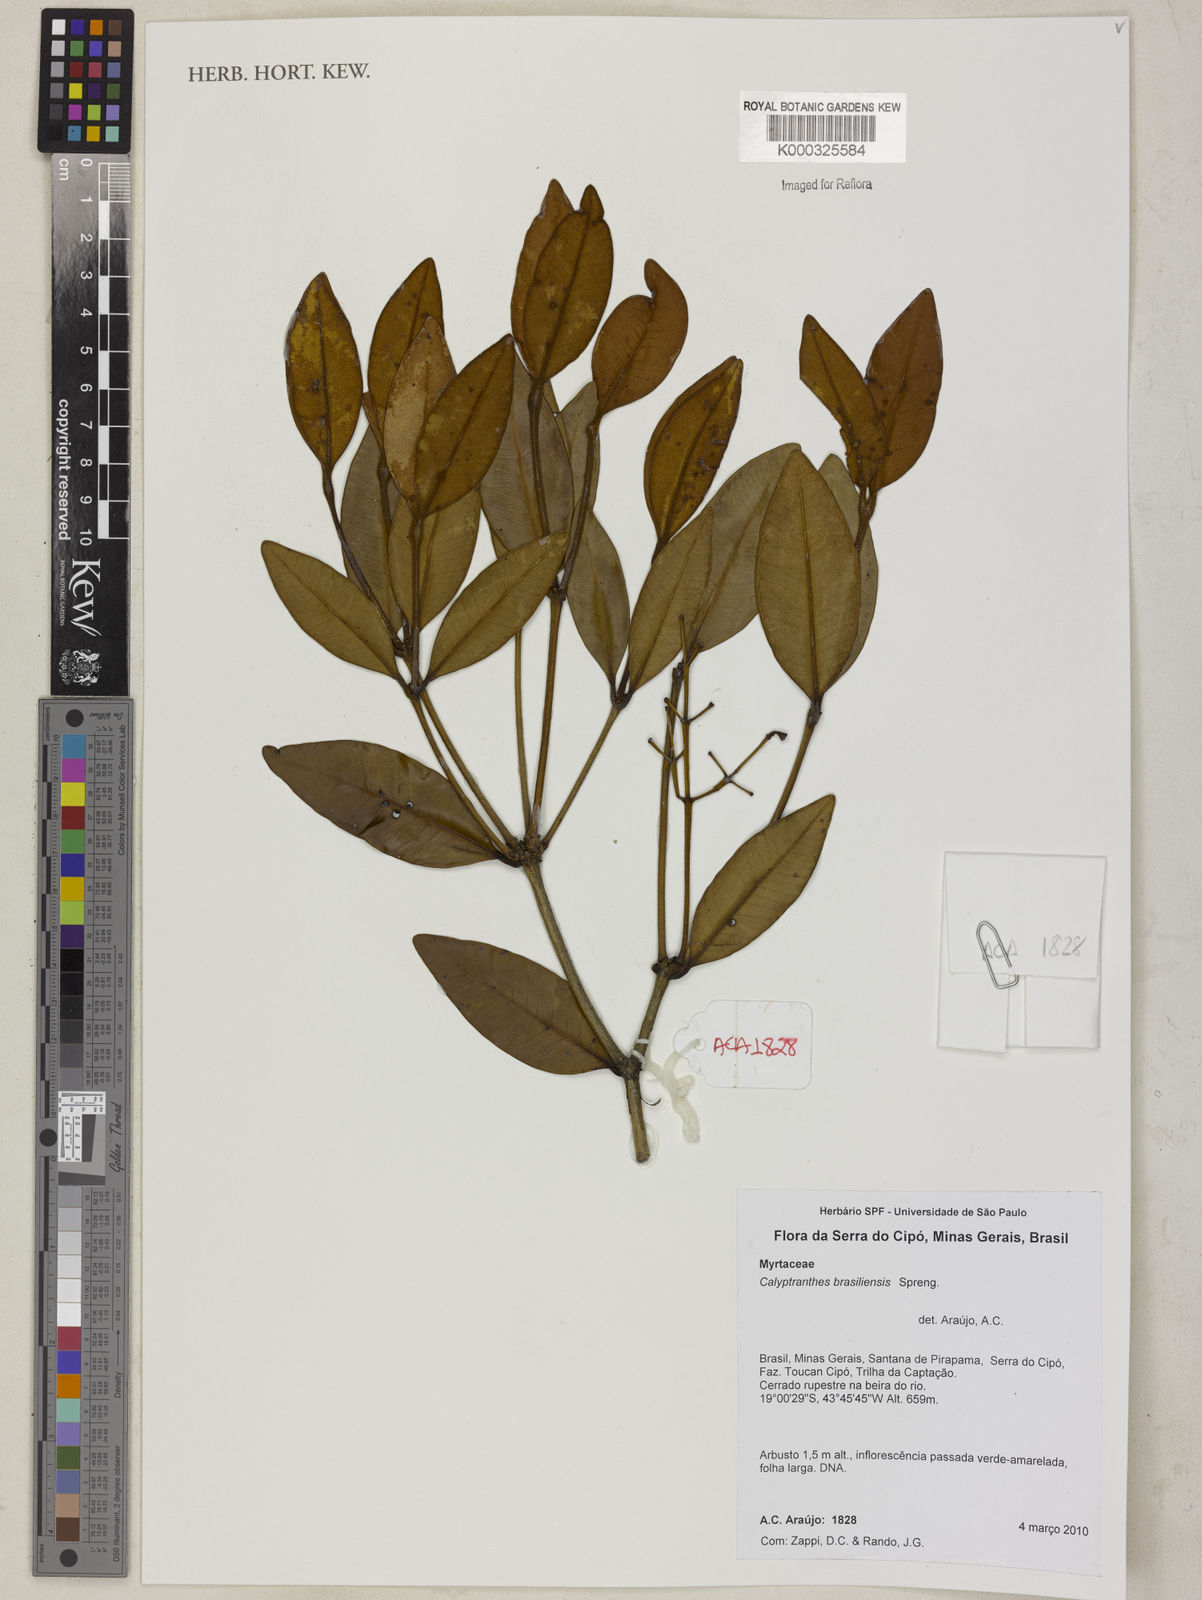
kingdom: Plantae
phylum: Tracheophyta
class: Magnoliopsida
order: Myrtales
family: Myrtaceae
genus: Myrcia
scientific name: Myrcia neobrasiliensis
